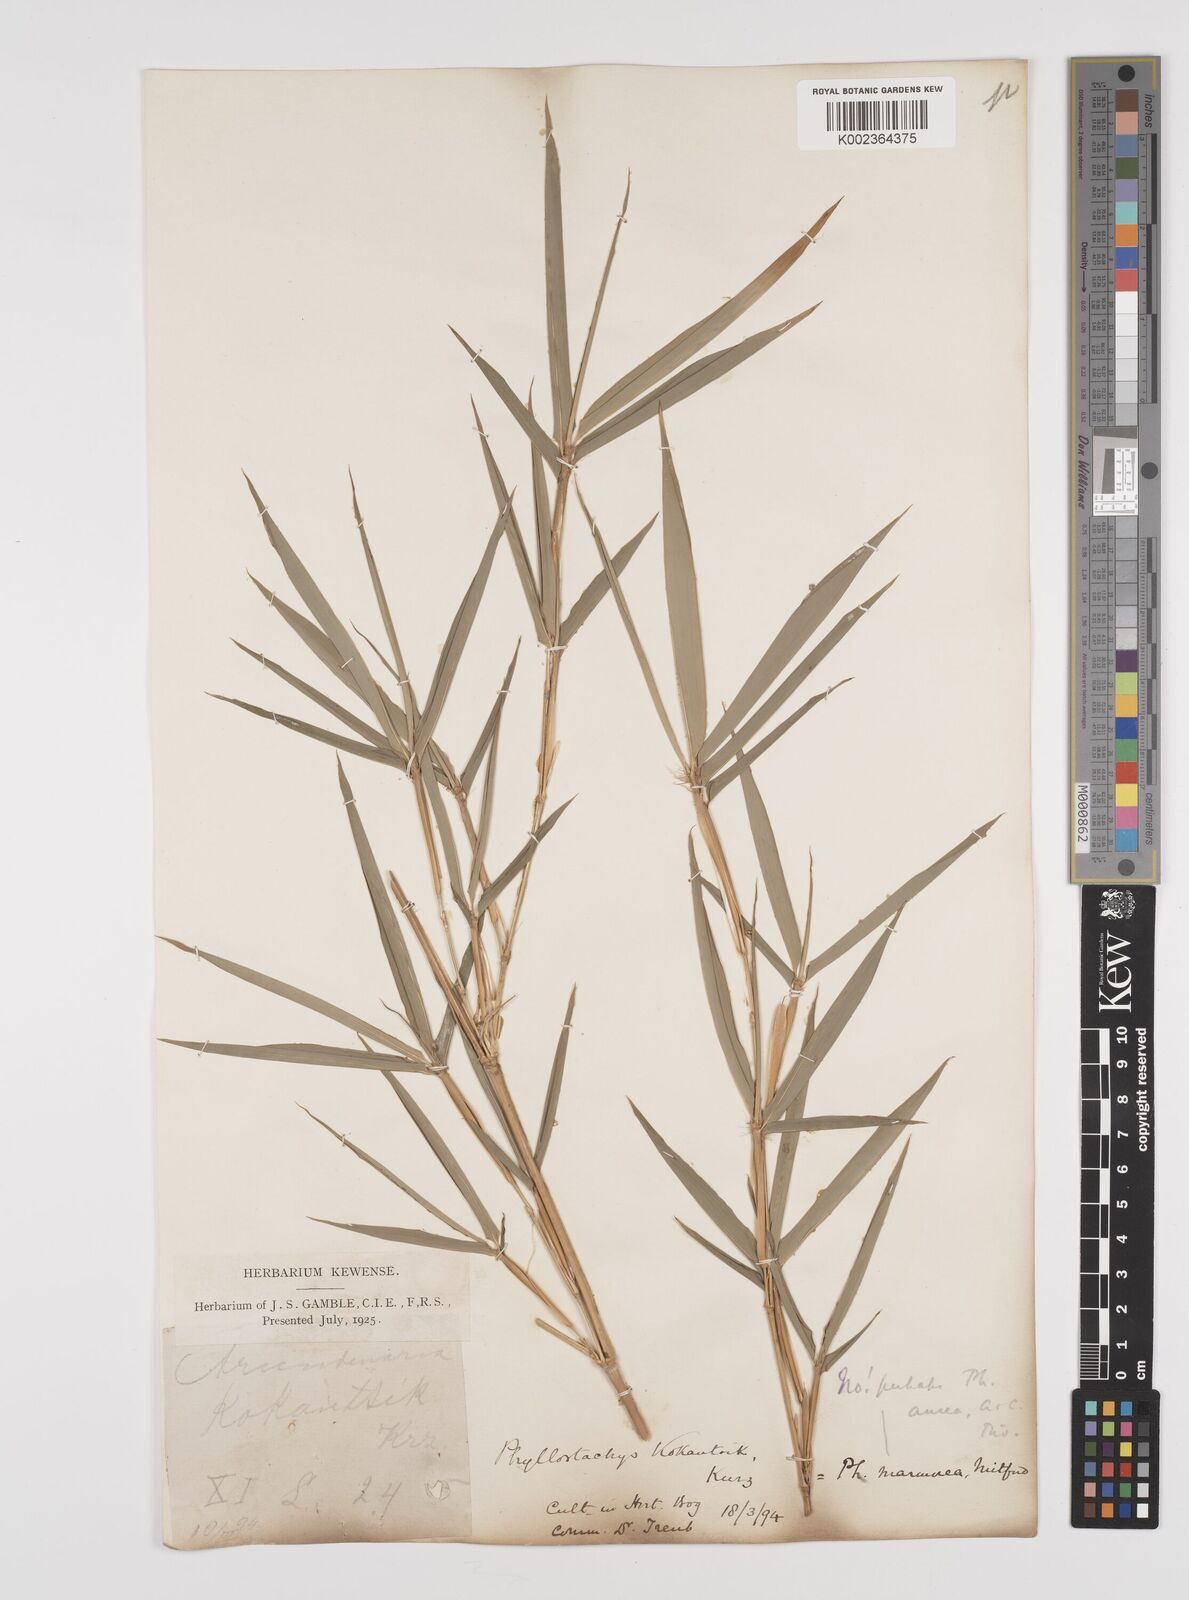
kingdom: Plantae
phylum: Tracheophyta
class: Liliopsida
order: Poales
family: Poaceae
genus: Phyllostachys
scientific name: Phyllostachys aurea
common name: Golden bamboo
